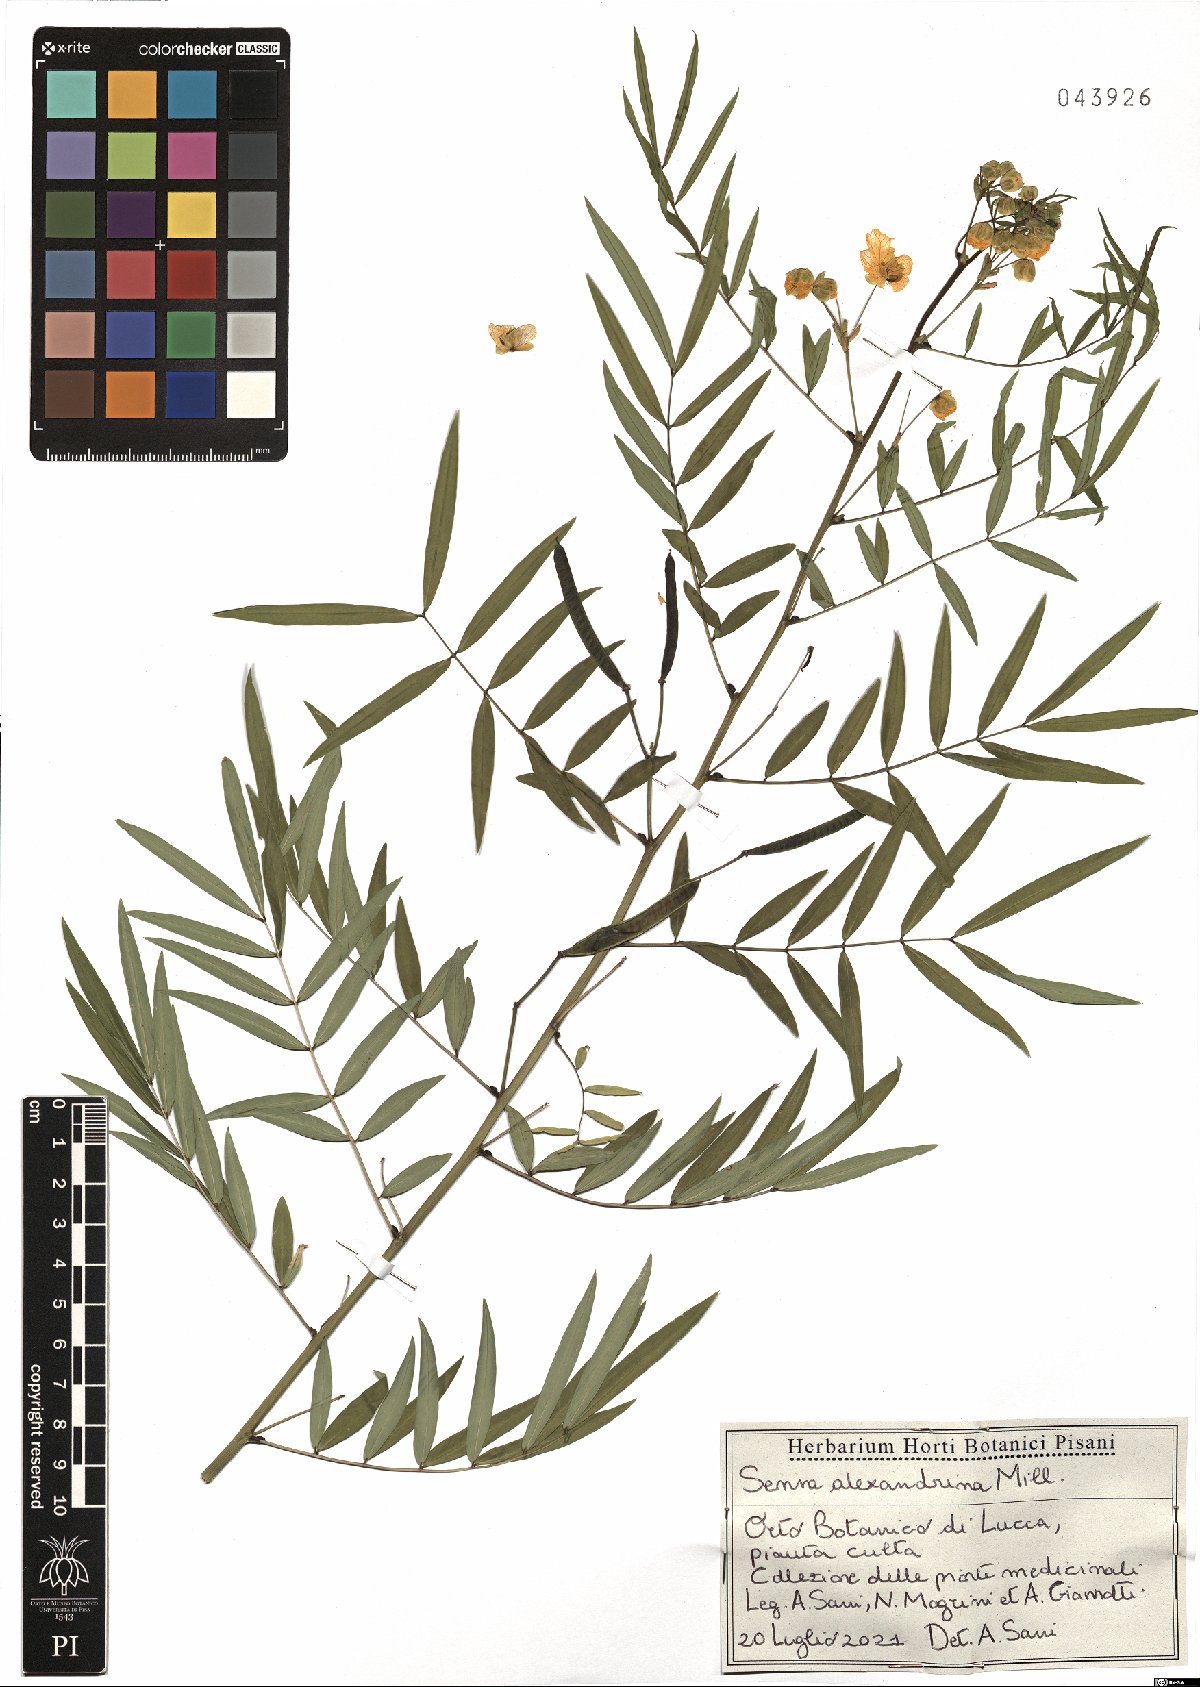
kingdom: Plantae
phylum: Tracheophyta
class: Magnoliopsida
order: Fabales
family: Fabaceae
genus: Senna
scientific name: Senna alexandrina
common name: True senna
